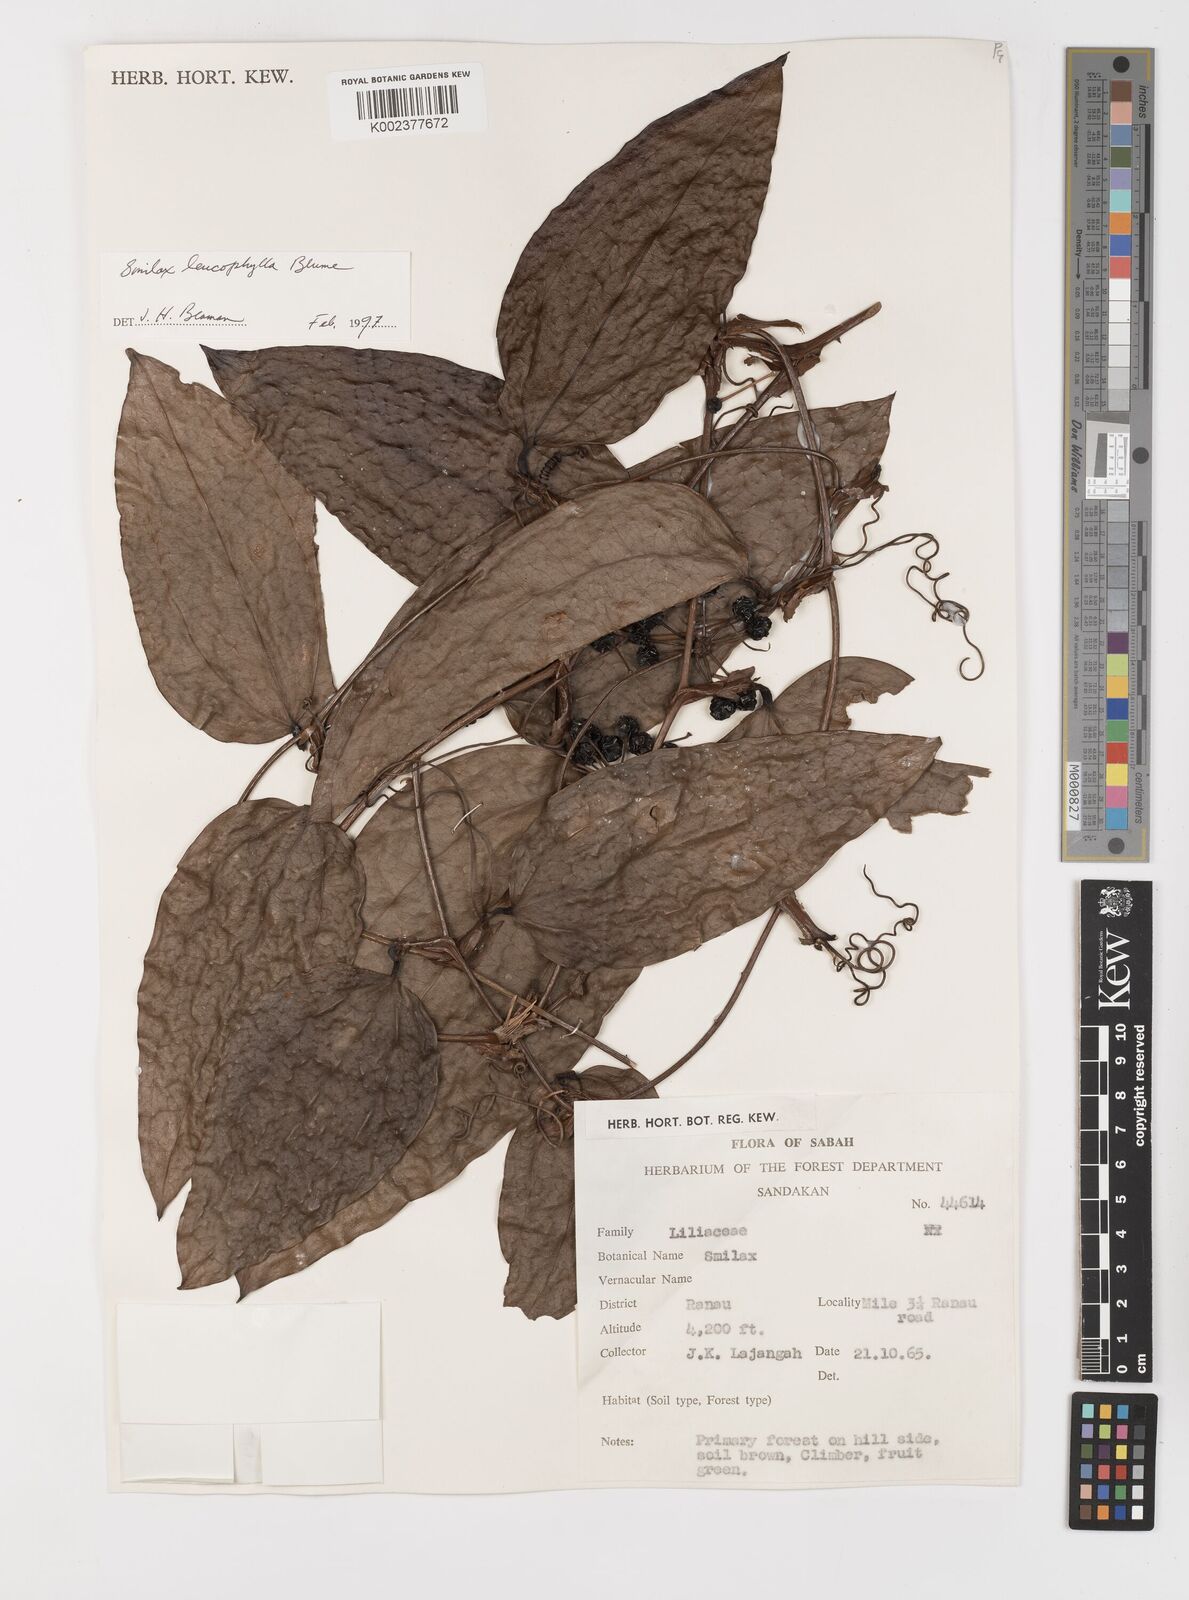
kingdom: Plantae
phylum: Tracheophyta
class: Liliopsida
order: Liliales
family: Smilacaceae
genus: Smilax
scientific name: Smilax leucophylla
